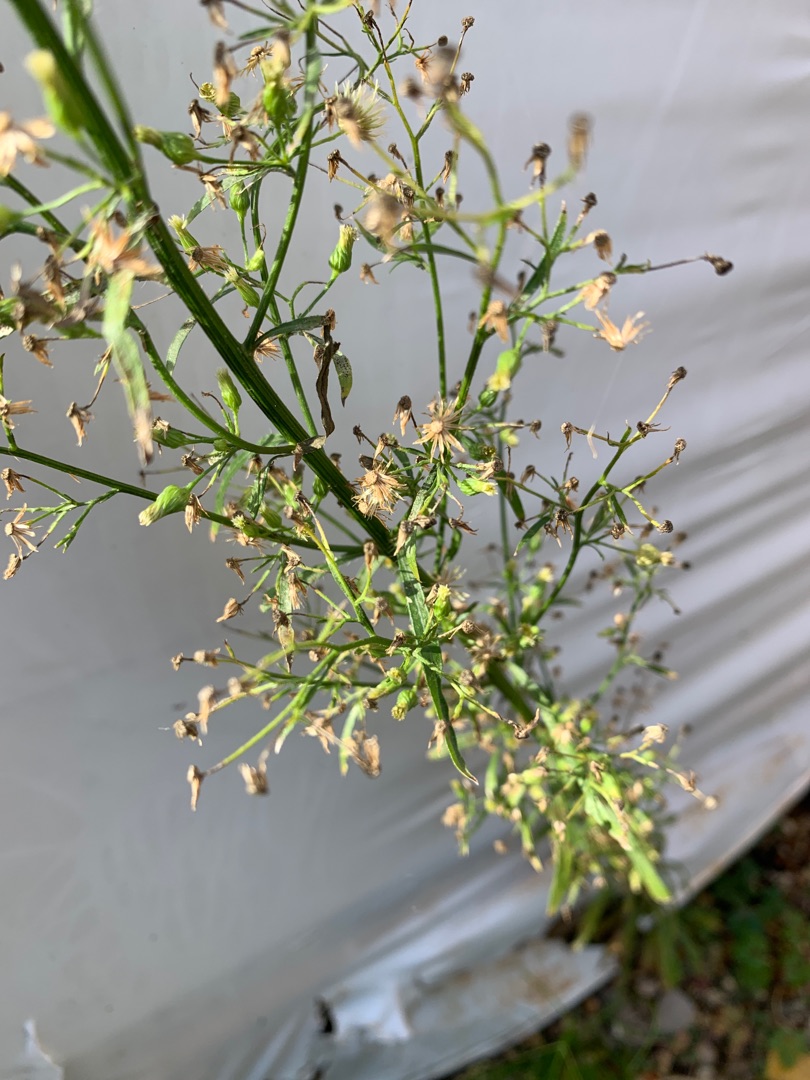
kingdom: Plantae
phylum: Tracheophyta
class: Magnoliopsida
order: Asterales
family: Asteraceae
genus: Erigeron
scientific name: Erigeron canadensis
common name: Kanadisk bakkestjerne
